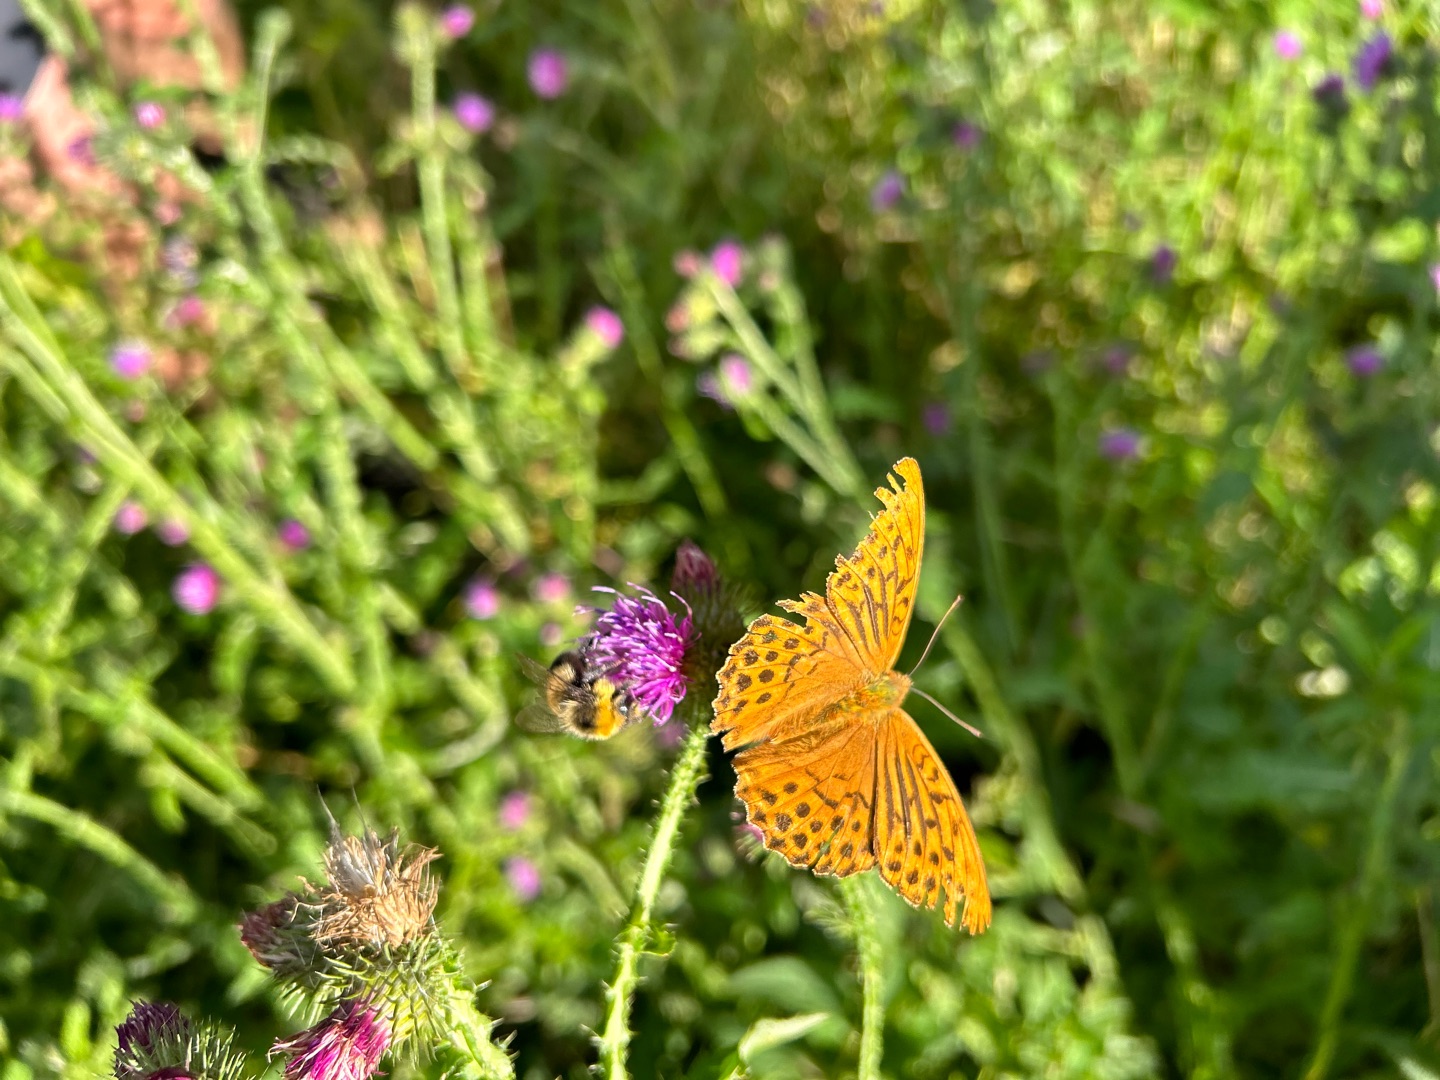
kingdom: Animalia
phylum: Arthropoda
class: Insecta
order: Lepidoptera
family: Nymphalidae
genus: Argynnis
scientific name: Argynnis paphia
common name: Kejserkåbe
